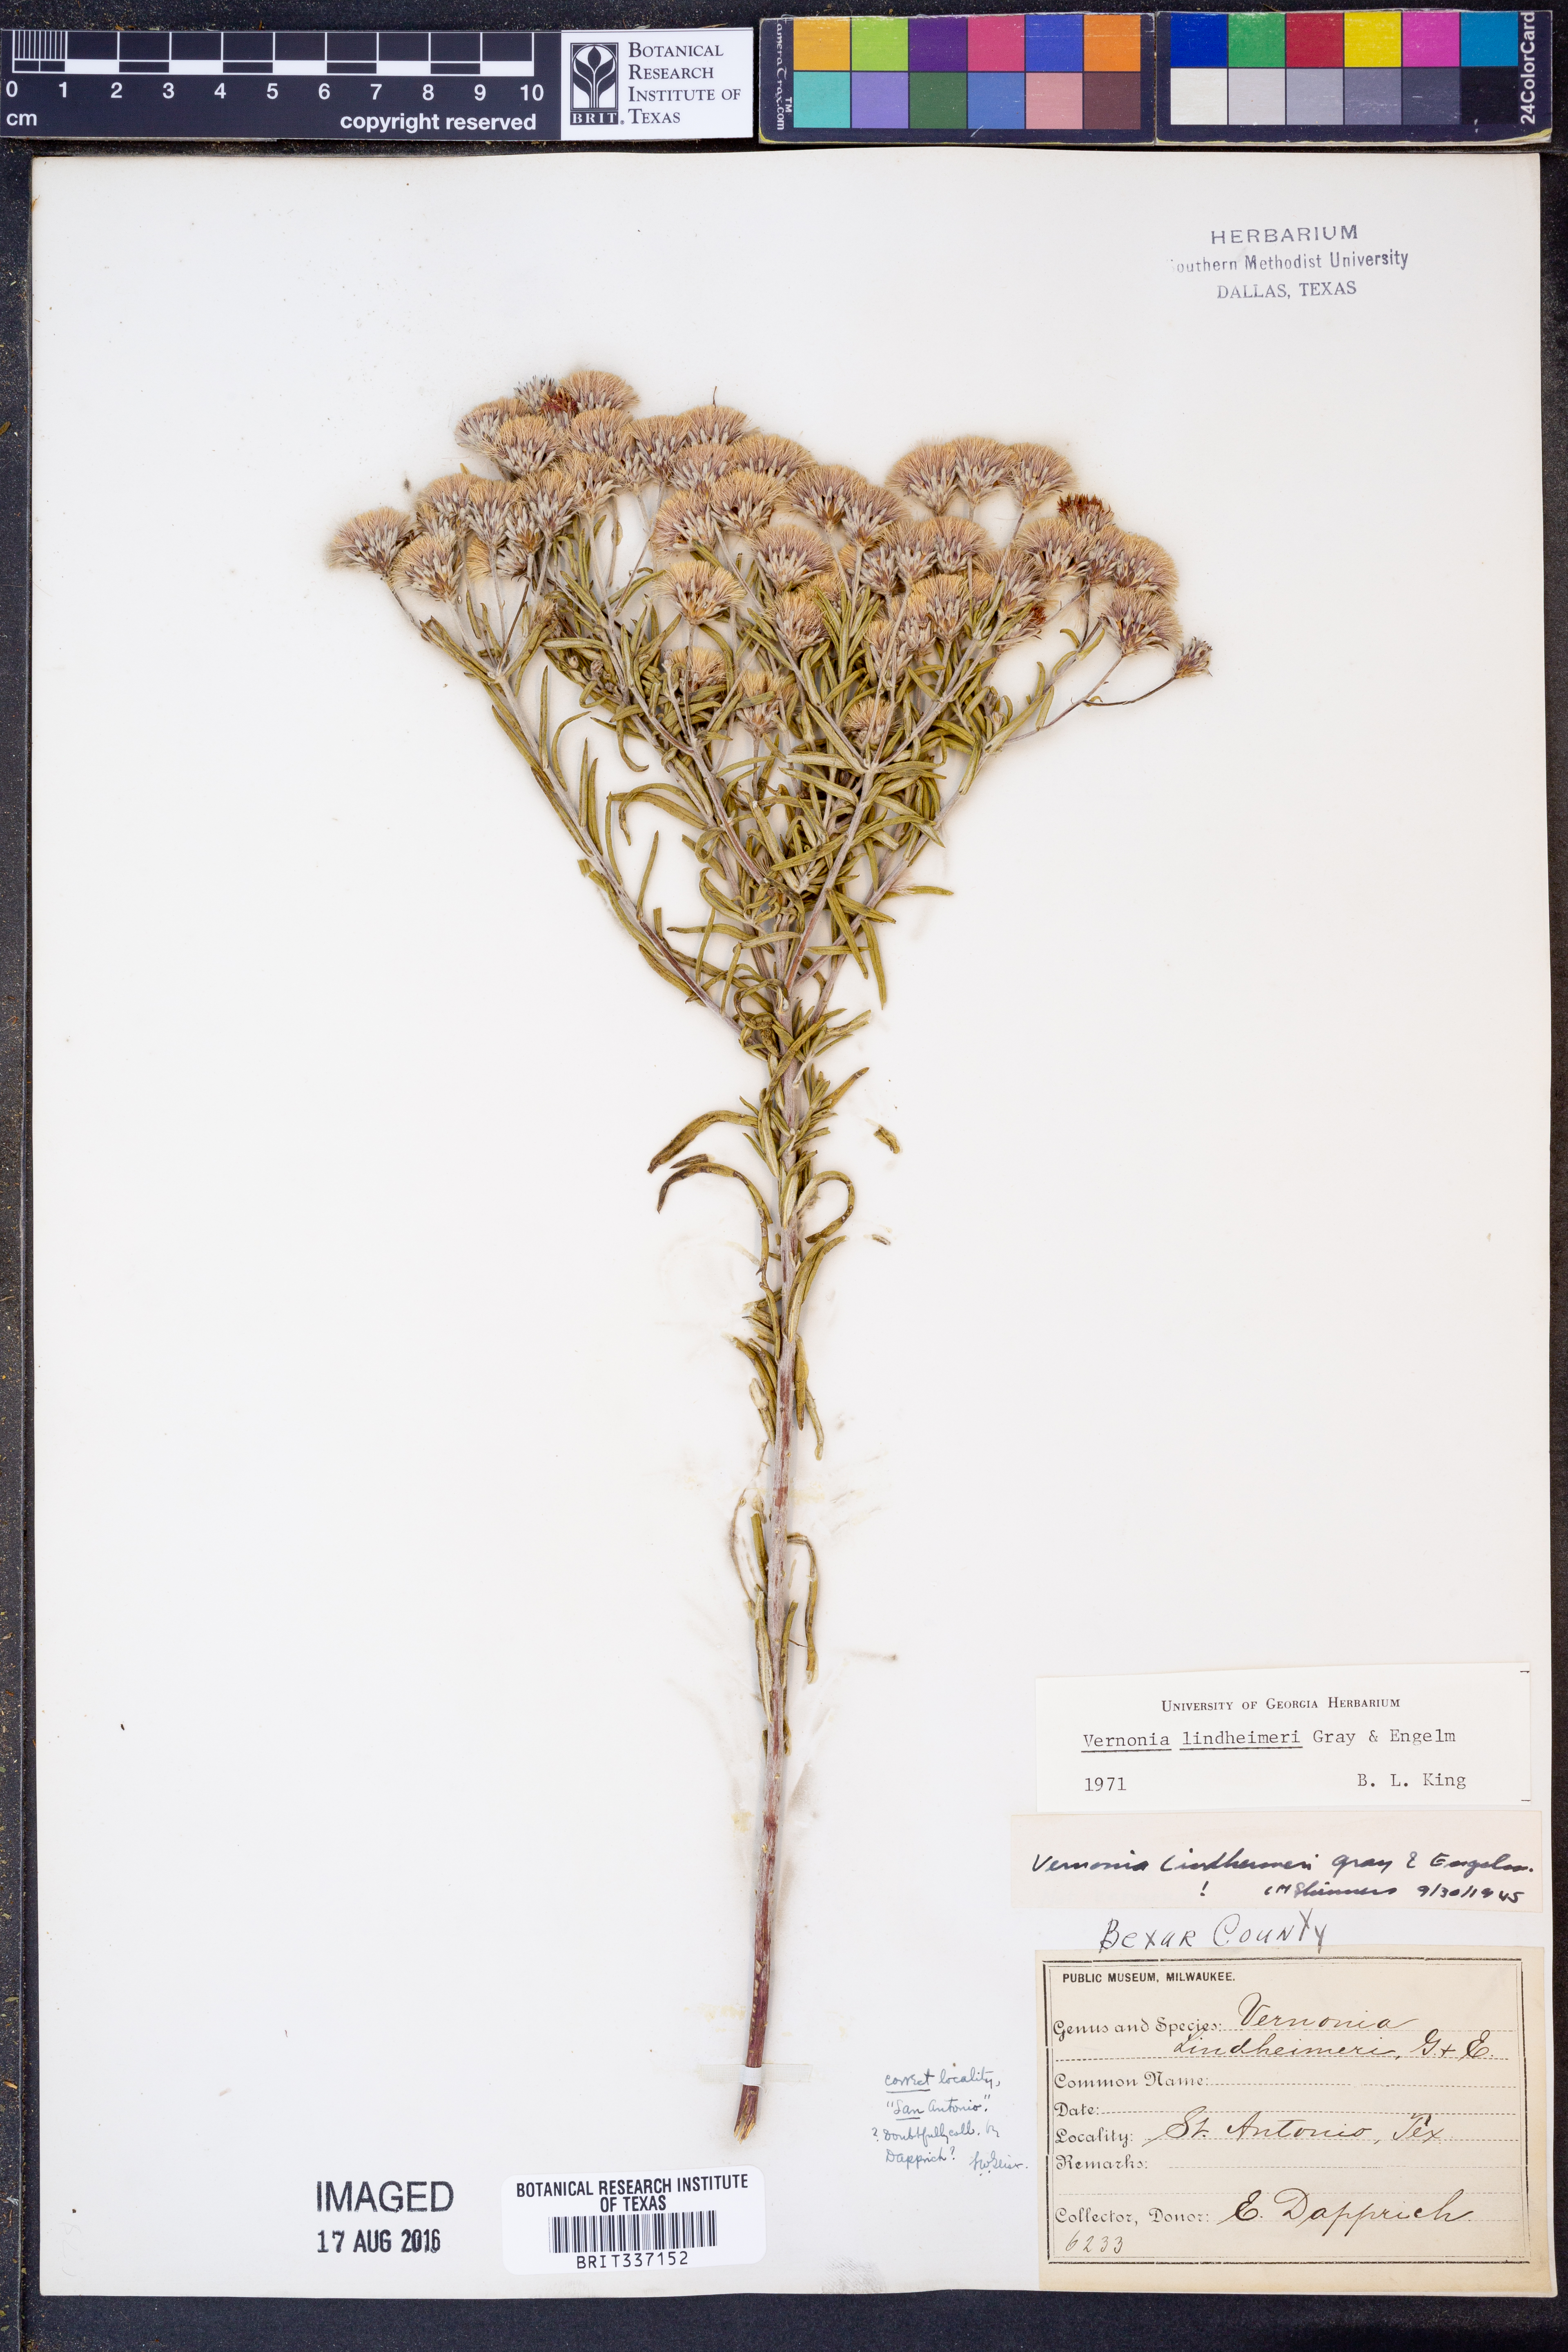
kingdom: Plantae
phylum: Tracheophyta
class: Magnoliopsida
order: Asterales
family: Asteraceae
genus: Vernonia
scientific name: Vernonia lindheimeri
